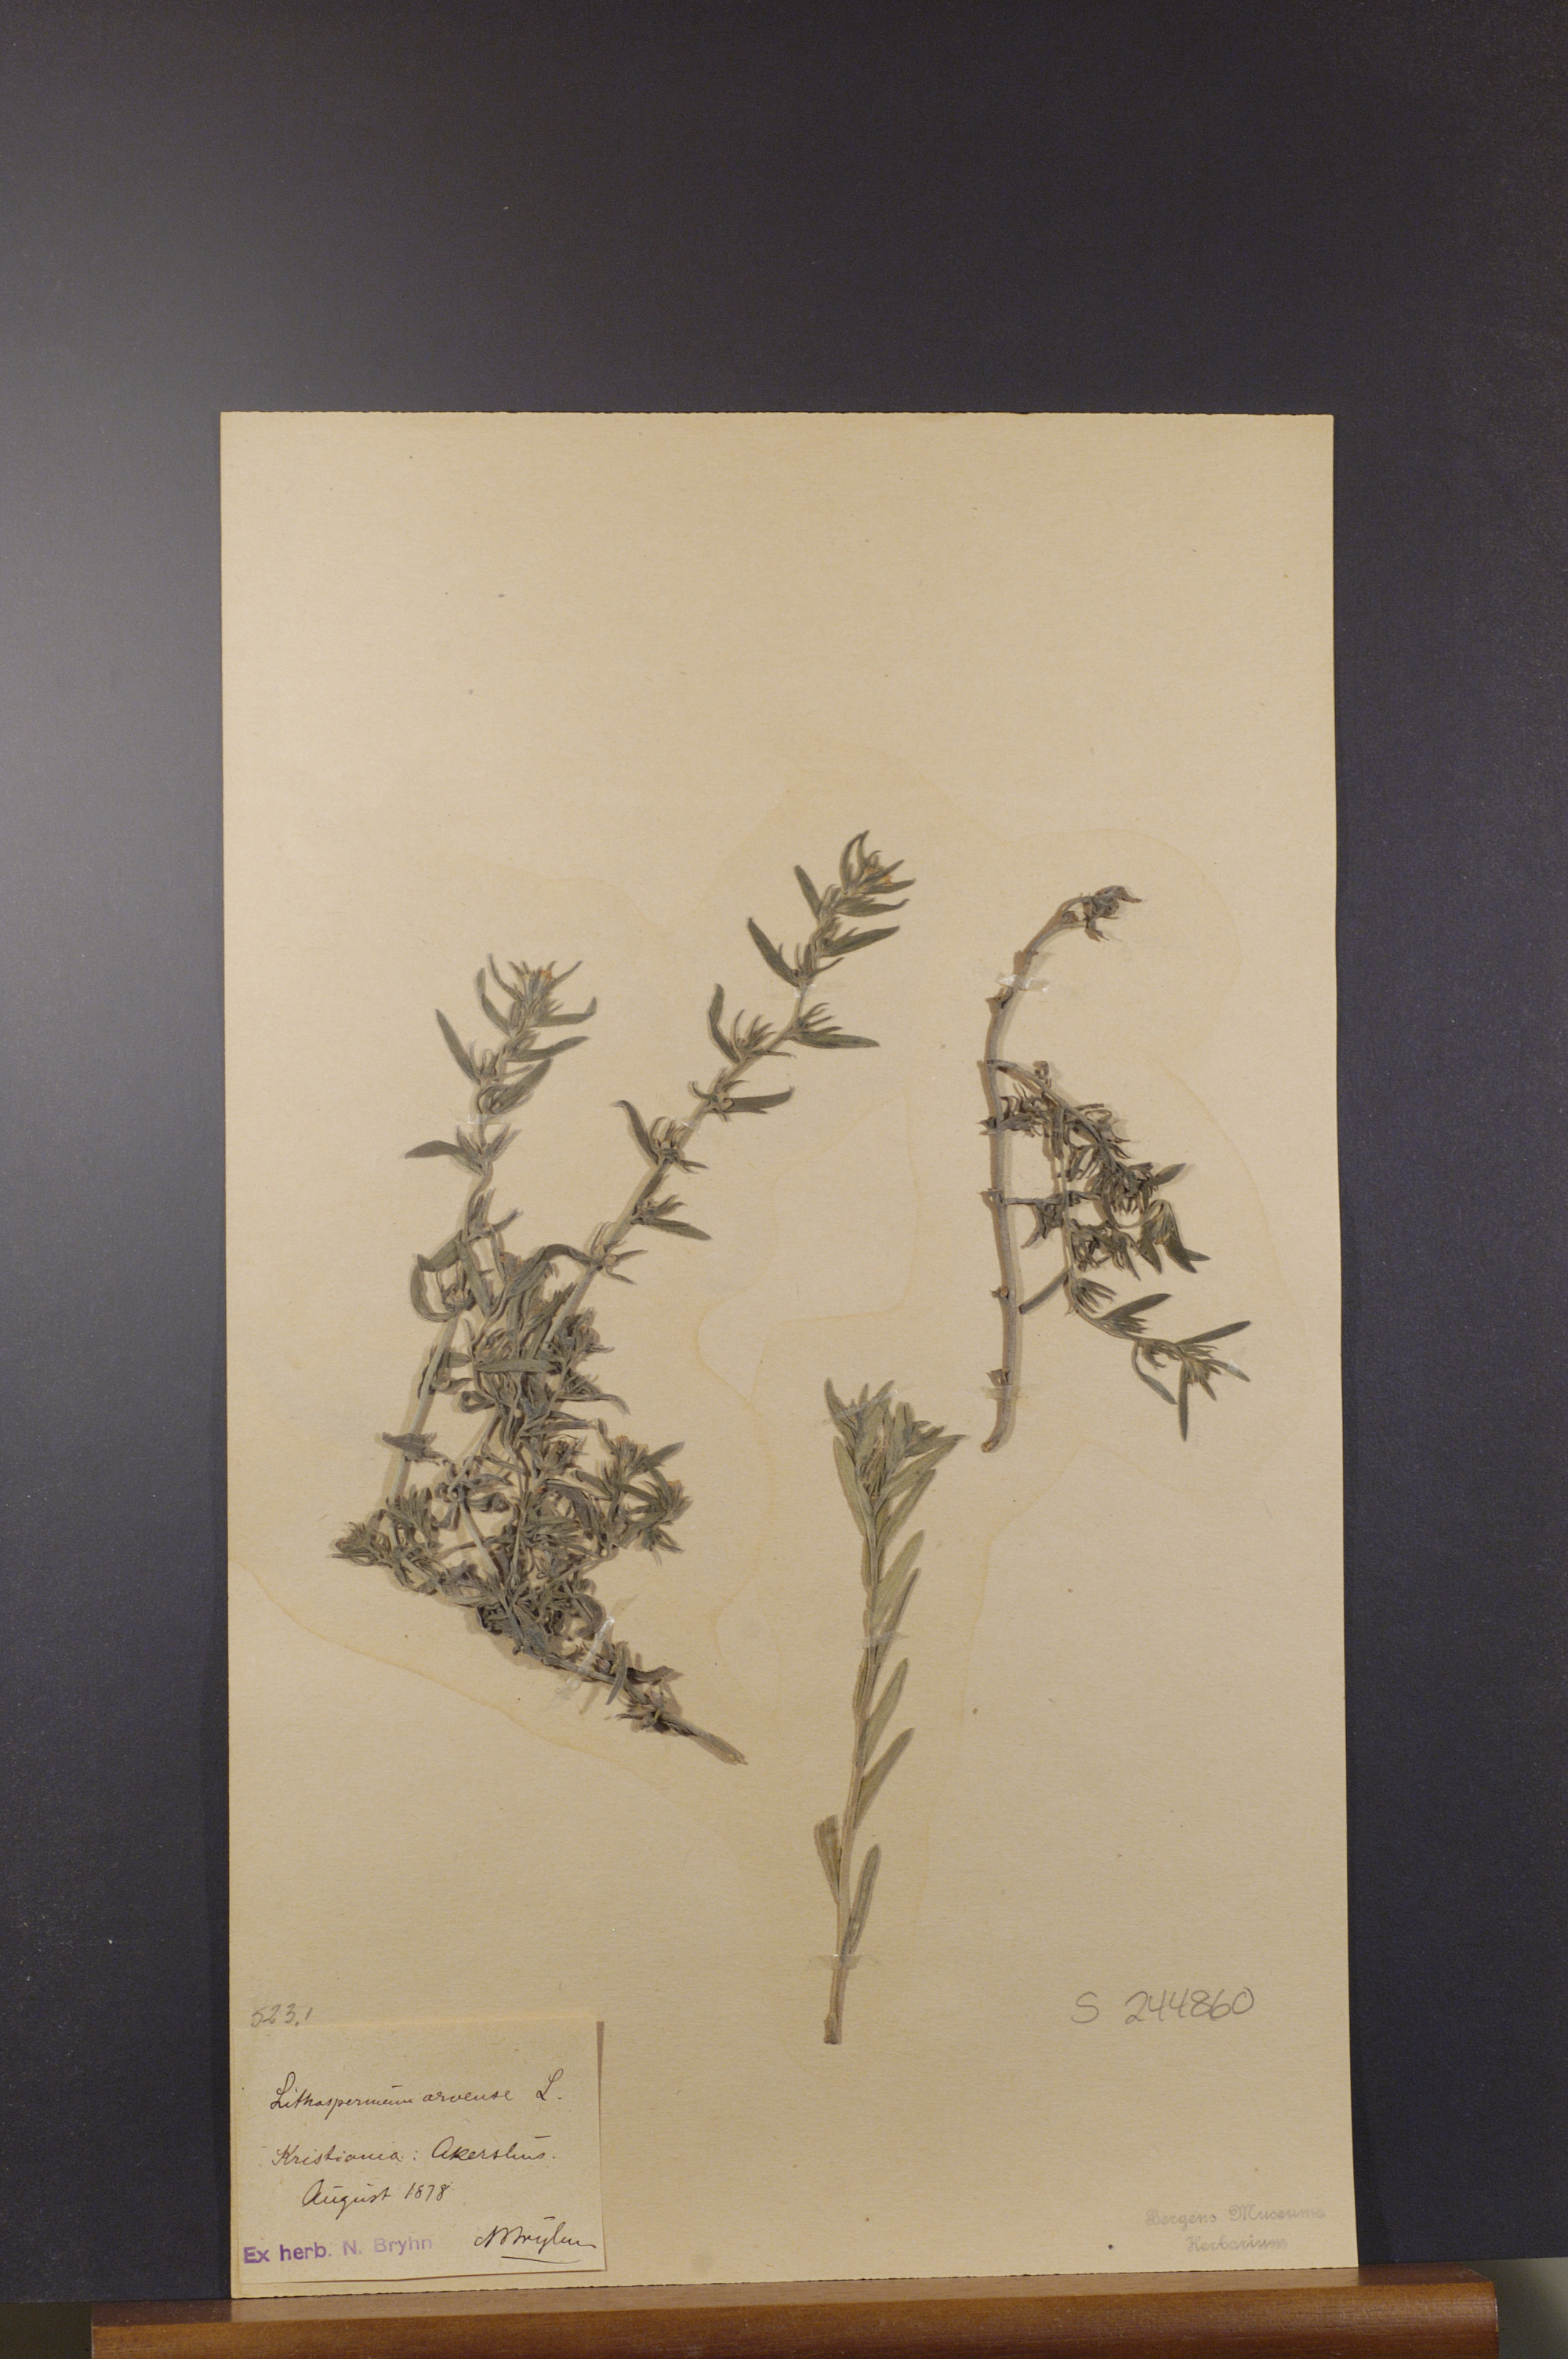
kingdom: Plantae
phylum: Tracheophyta
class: Magnoliopsida
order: Boraginales
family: Boraginaceae
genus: Buglossoides
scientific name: Buglossoides arvensis
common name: Corn gromwell
